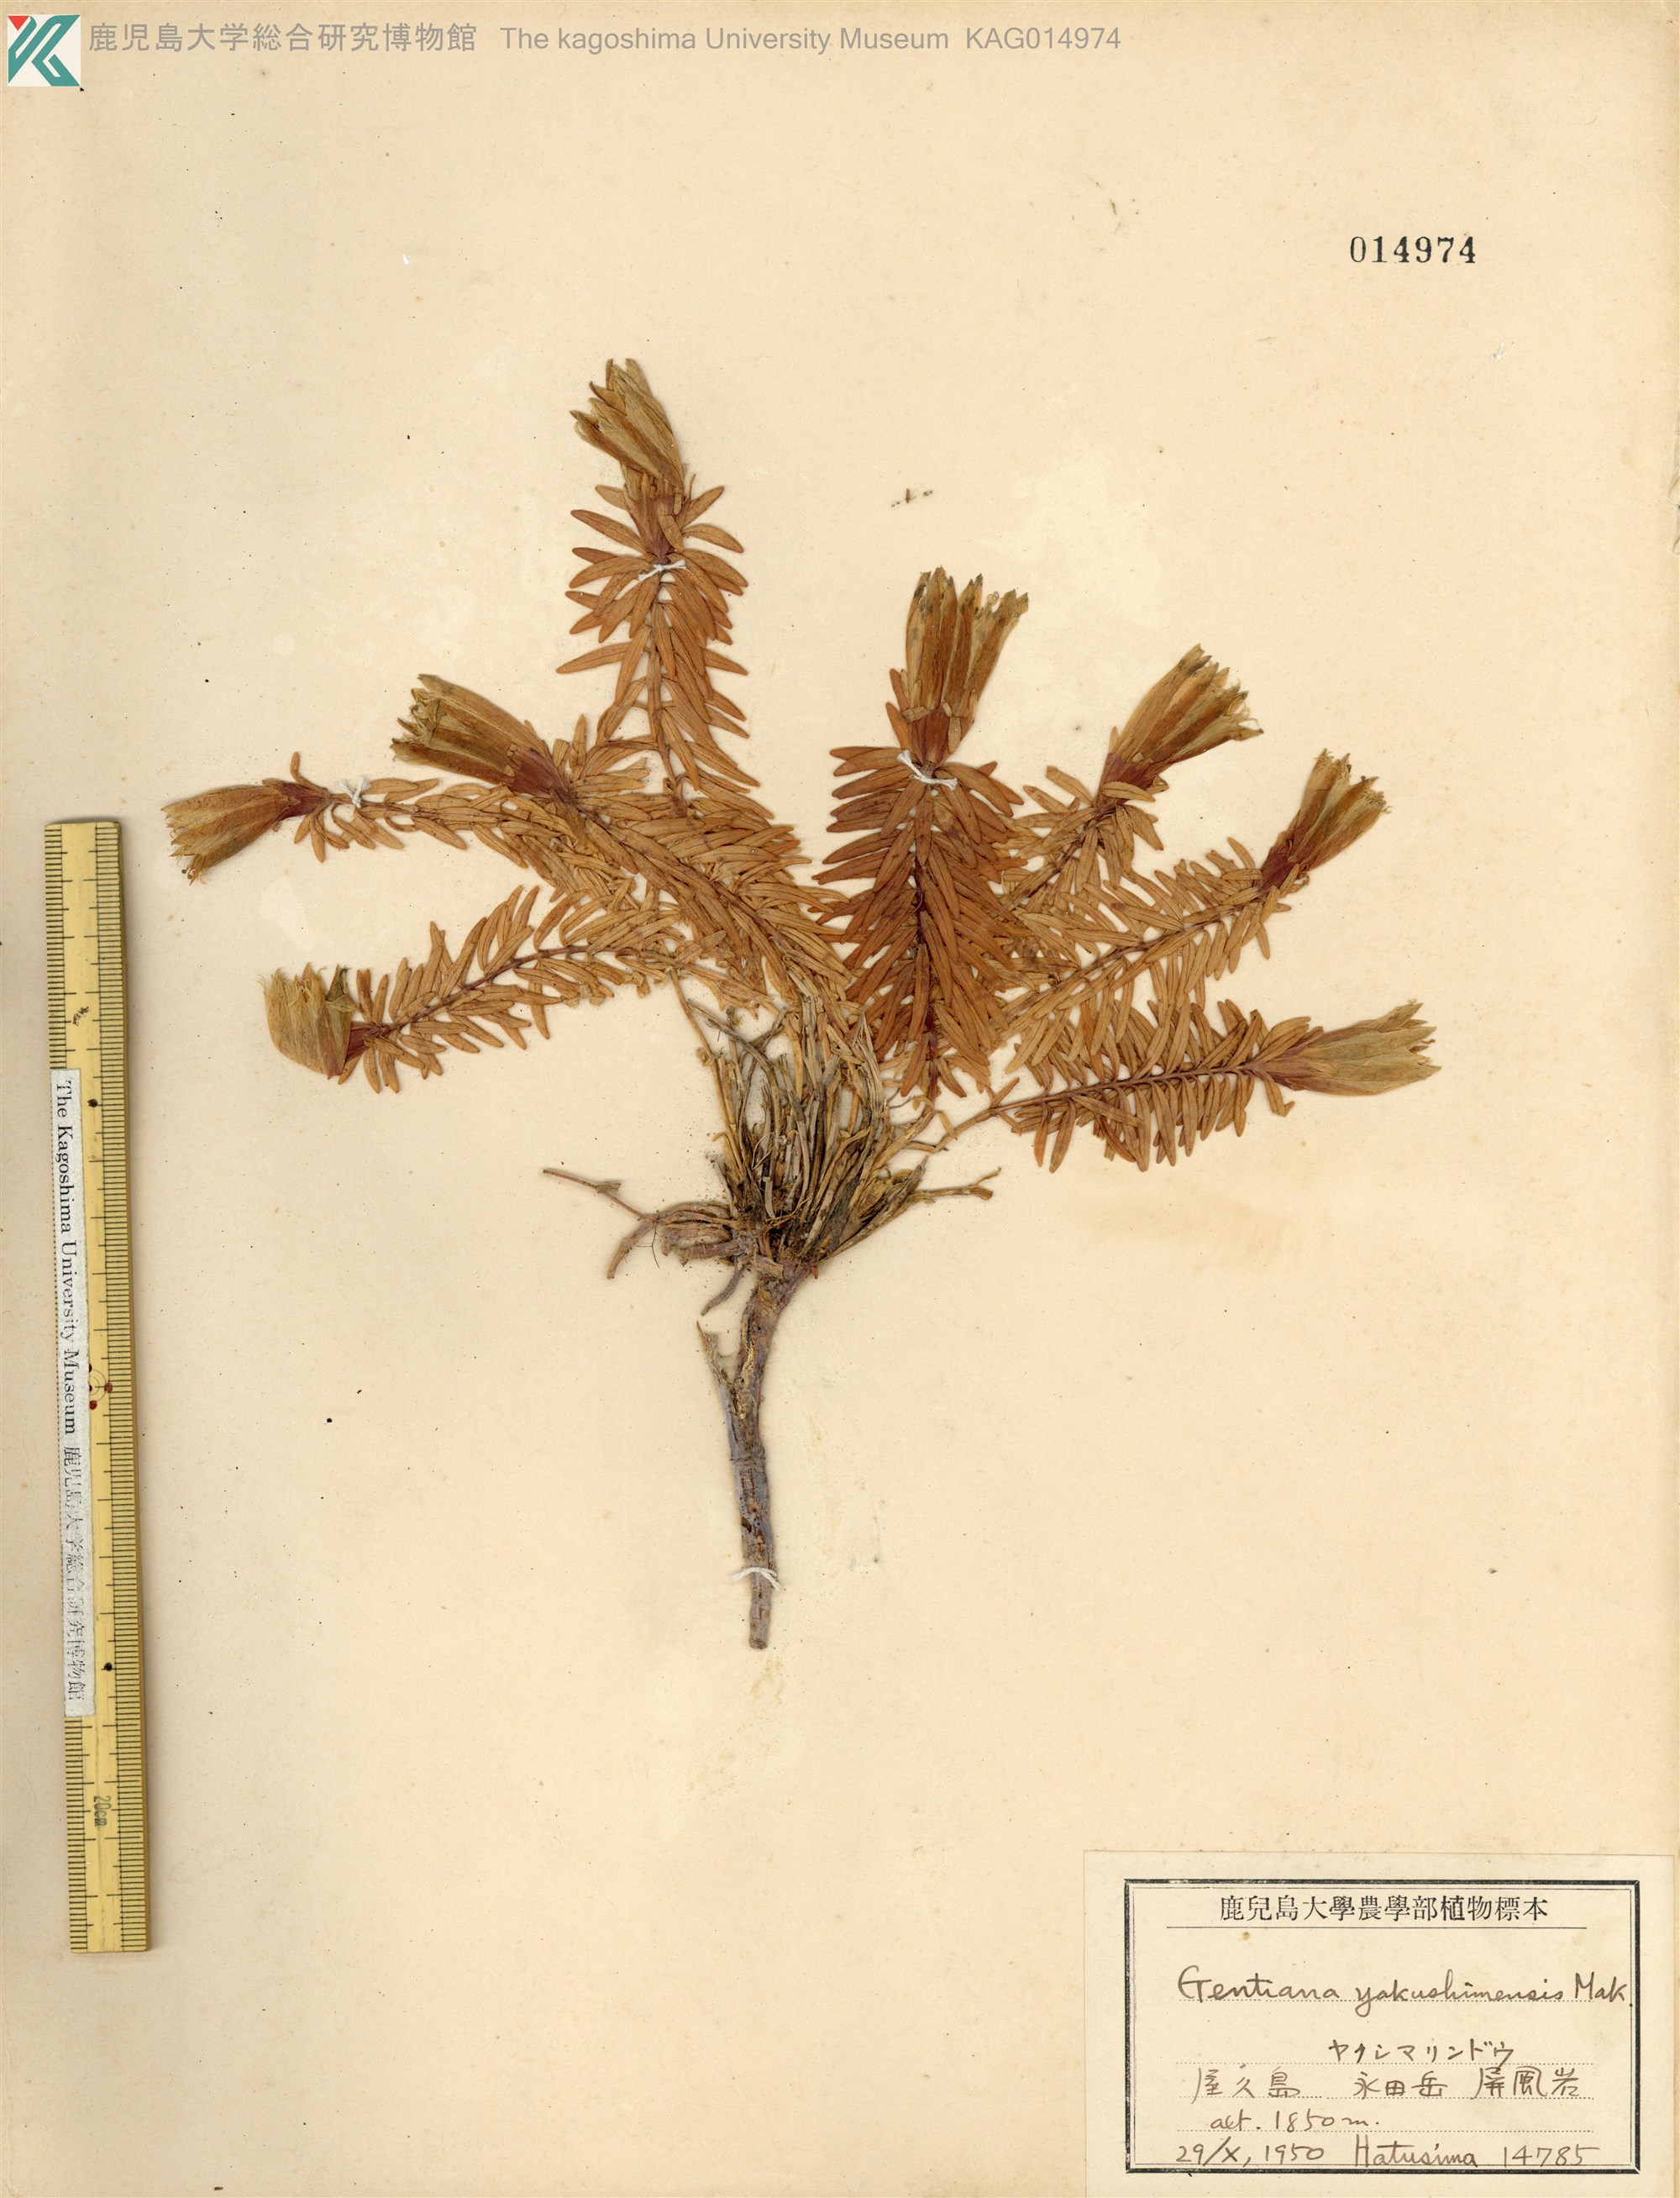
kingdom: Plantae
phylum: Tracheophyta
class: Magnoliopsida
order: Gentianales
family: Gentianaceae
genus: Gentiana
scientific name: Gentiana yakushimensis
